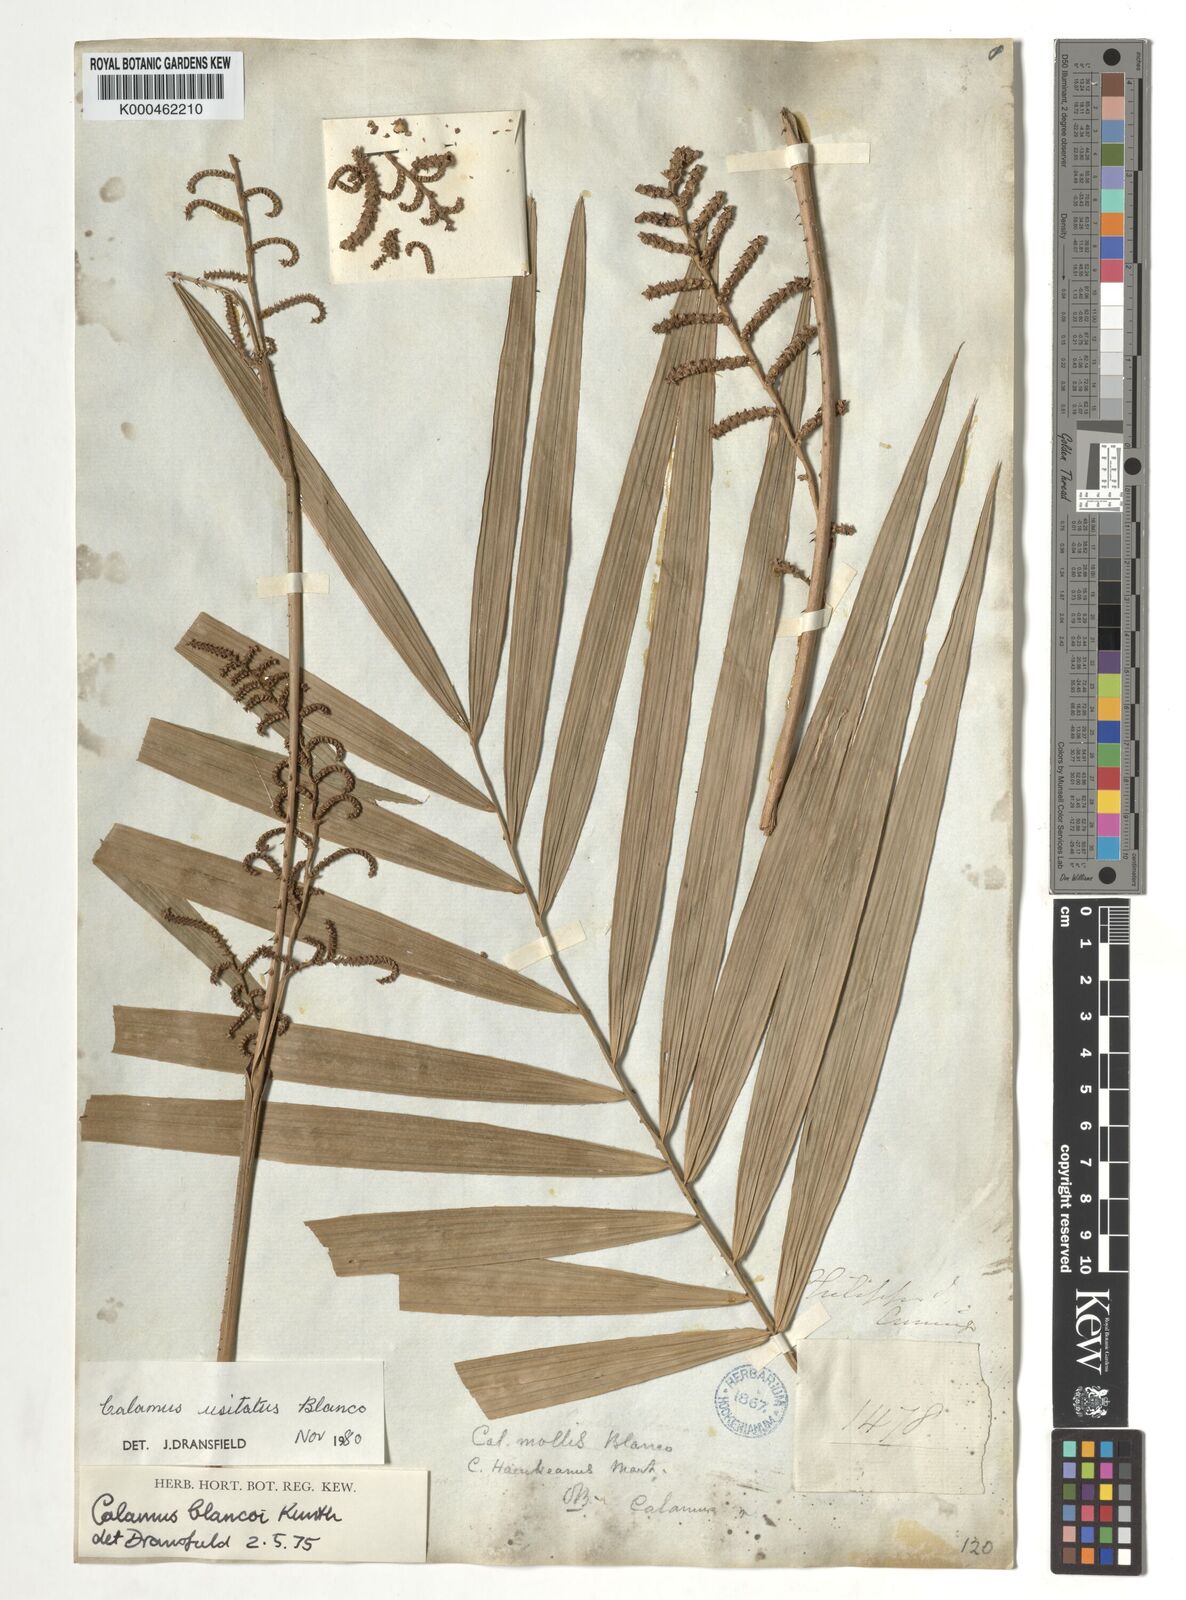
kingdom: Plantae
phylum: Tracheophyta
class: Liliopsida
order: Arecales
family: Arecaceae
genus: Calamus
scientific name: Calamus usitatus
